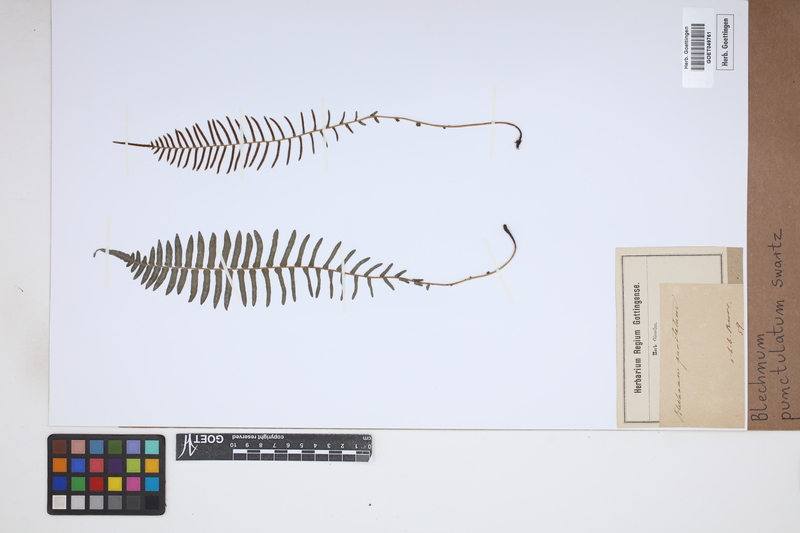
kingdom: Plantae
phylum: Tracheophyta
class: Polypodiopsida
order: Polypodiales
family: Blechnaceae
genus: Blechnum
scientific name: Blechnum punctulatum
